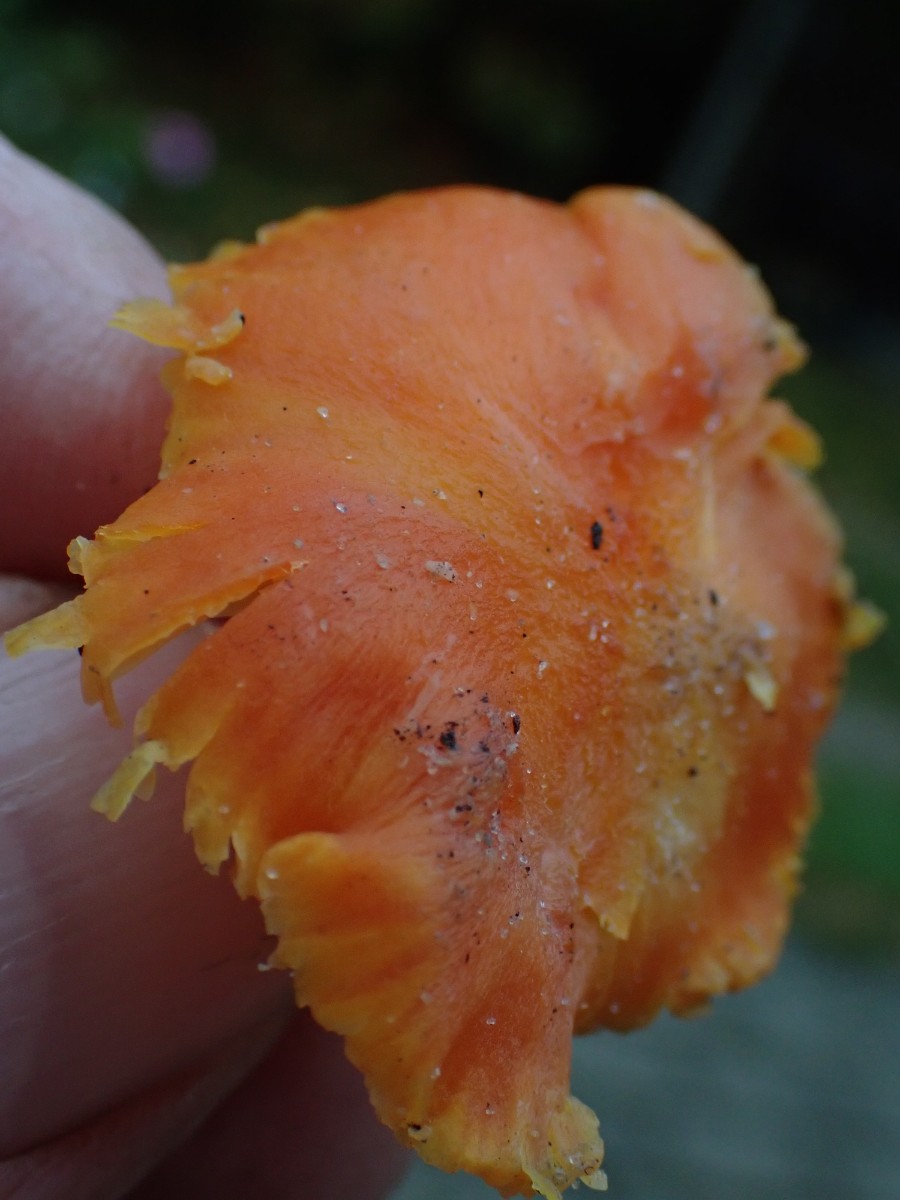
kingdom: Fungi
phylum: Basidiomycota
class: Agaricomycetes
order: Agaricales
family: Hygrophoraceae
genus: Hygrocybe
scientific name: Hygrocybe reidii
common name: honning-vokshat
